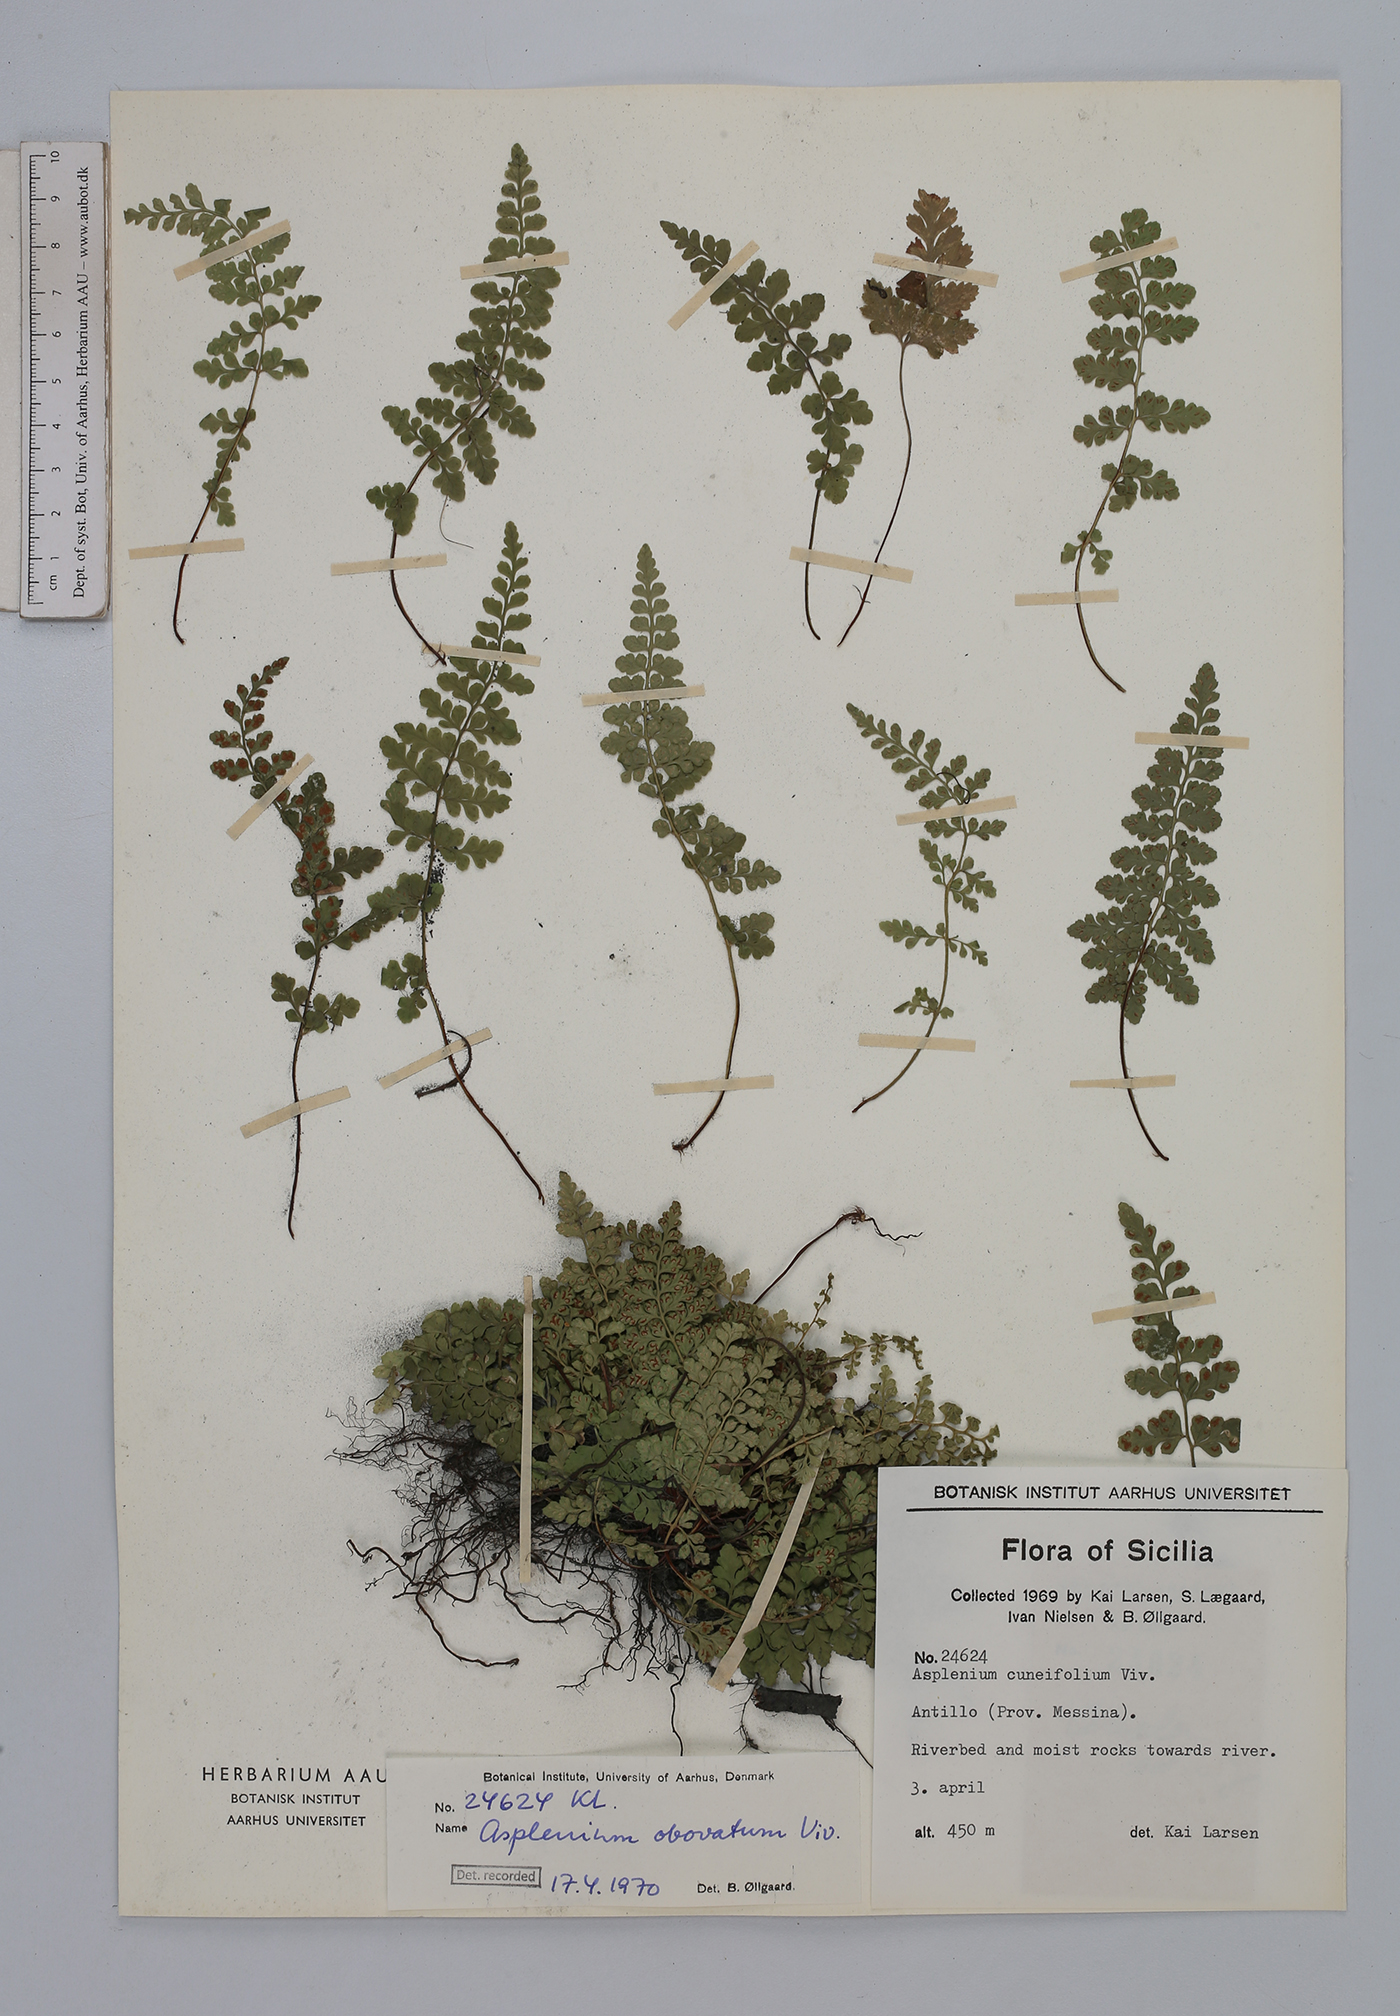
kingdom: Plantae
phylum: Tracheophyta
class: Polypodiopsida
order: Polypodiales
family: Aspleniaceae
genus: Asplenium
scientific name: Asplenium obovatum
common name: Lanceolate spleenwort
